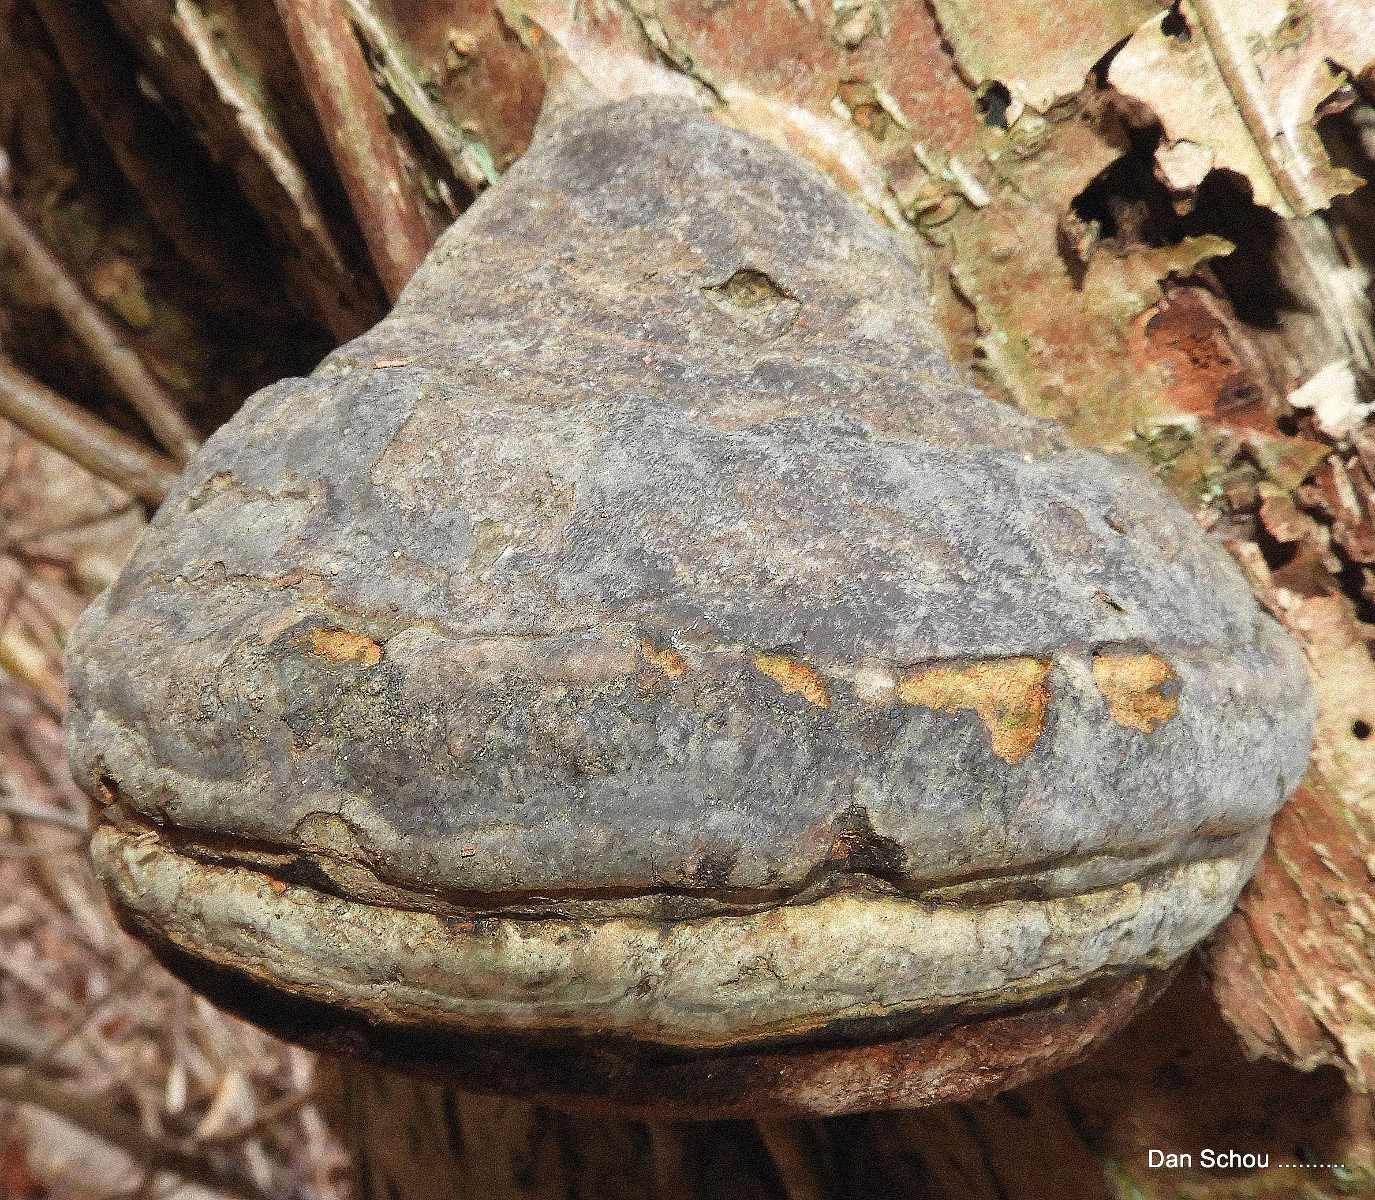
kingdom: Fungi
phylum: Basidiomycota
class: Agaricomycetes
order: Polyporales
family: Polyporaceae
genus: Fomes
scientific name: Fomes fomentarius
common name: tøndersvamp
